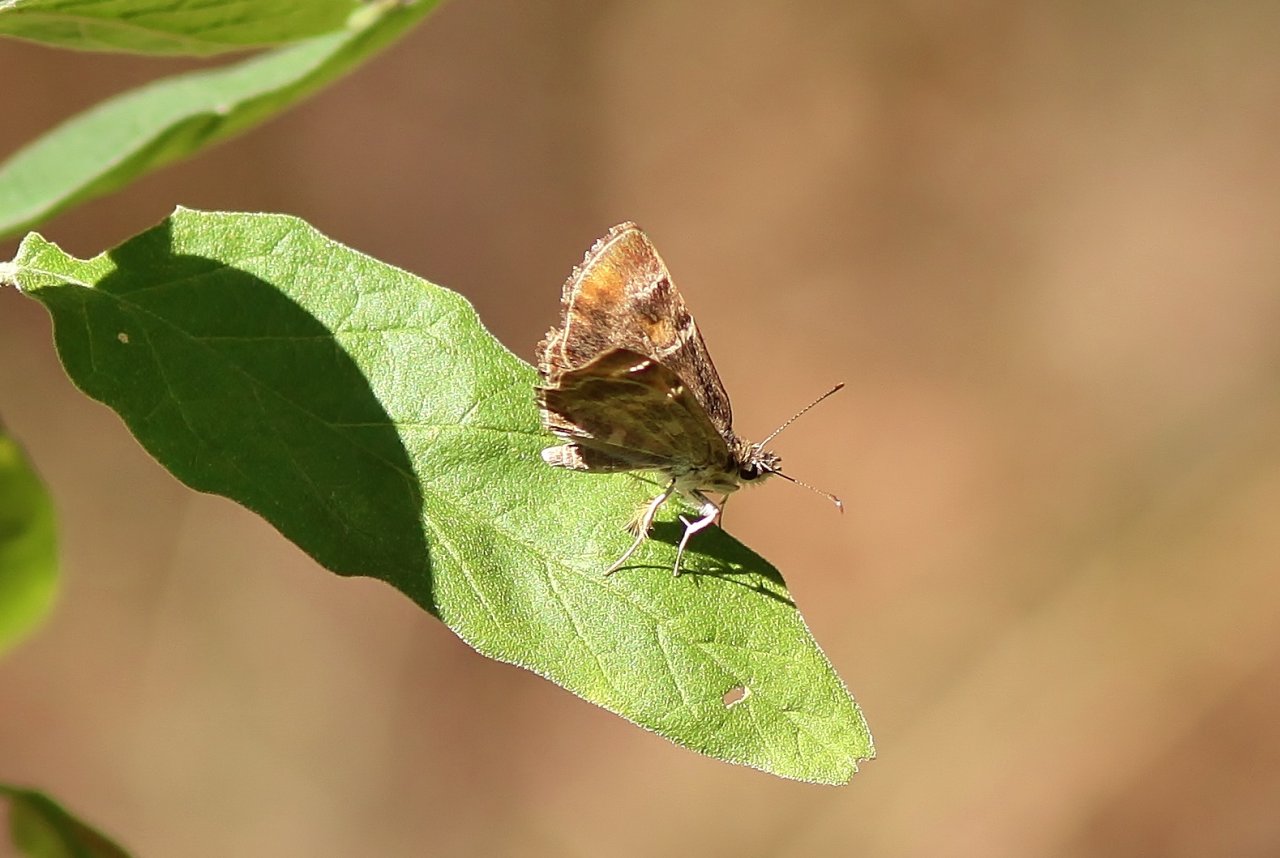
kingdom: Animalia
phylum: Arthropoda
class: Insecta
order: Lepidoptera
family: Hesperiidae
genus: Systasea
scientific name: Systasea pulverulenta
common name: Texas Powdered-Skipper
